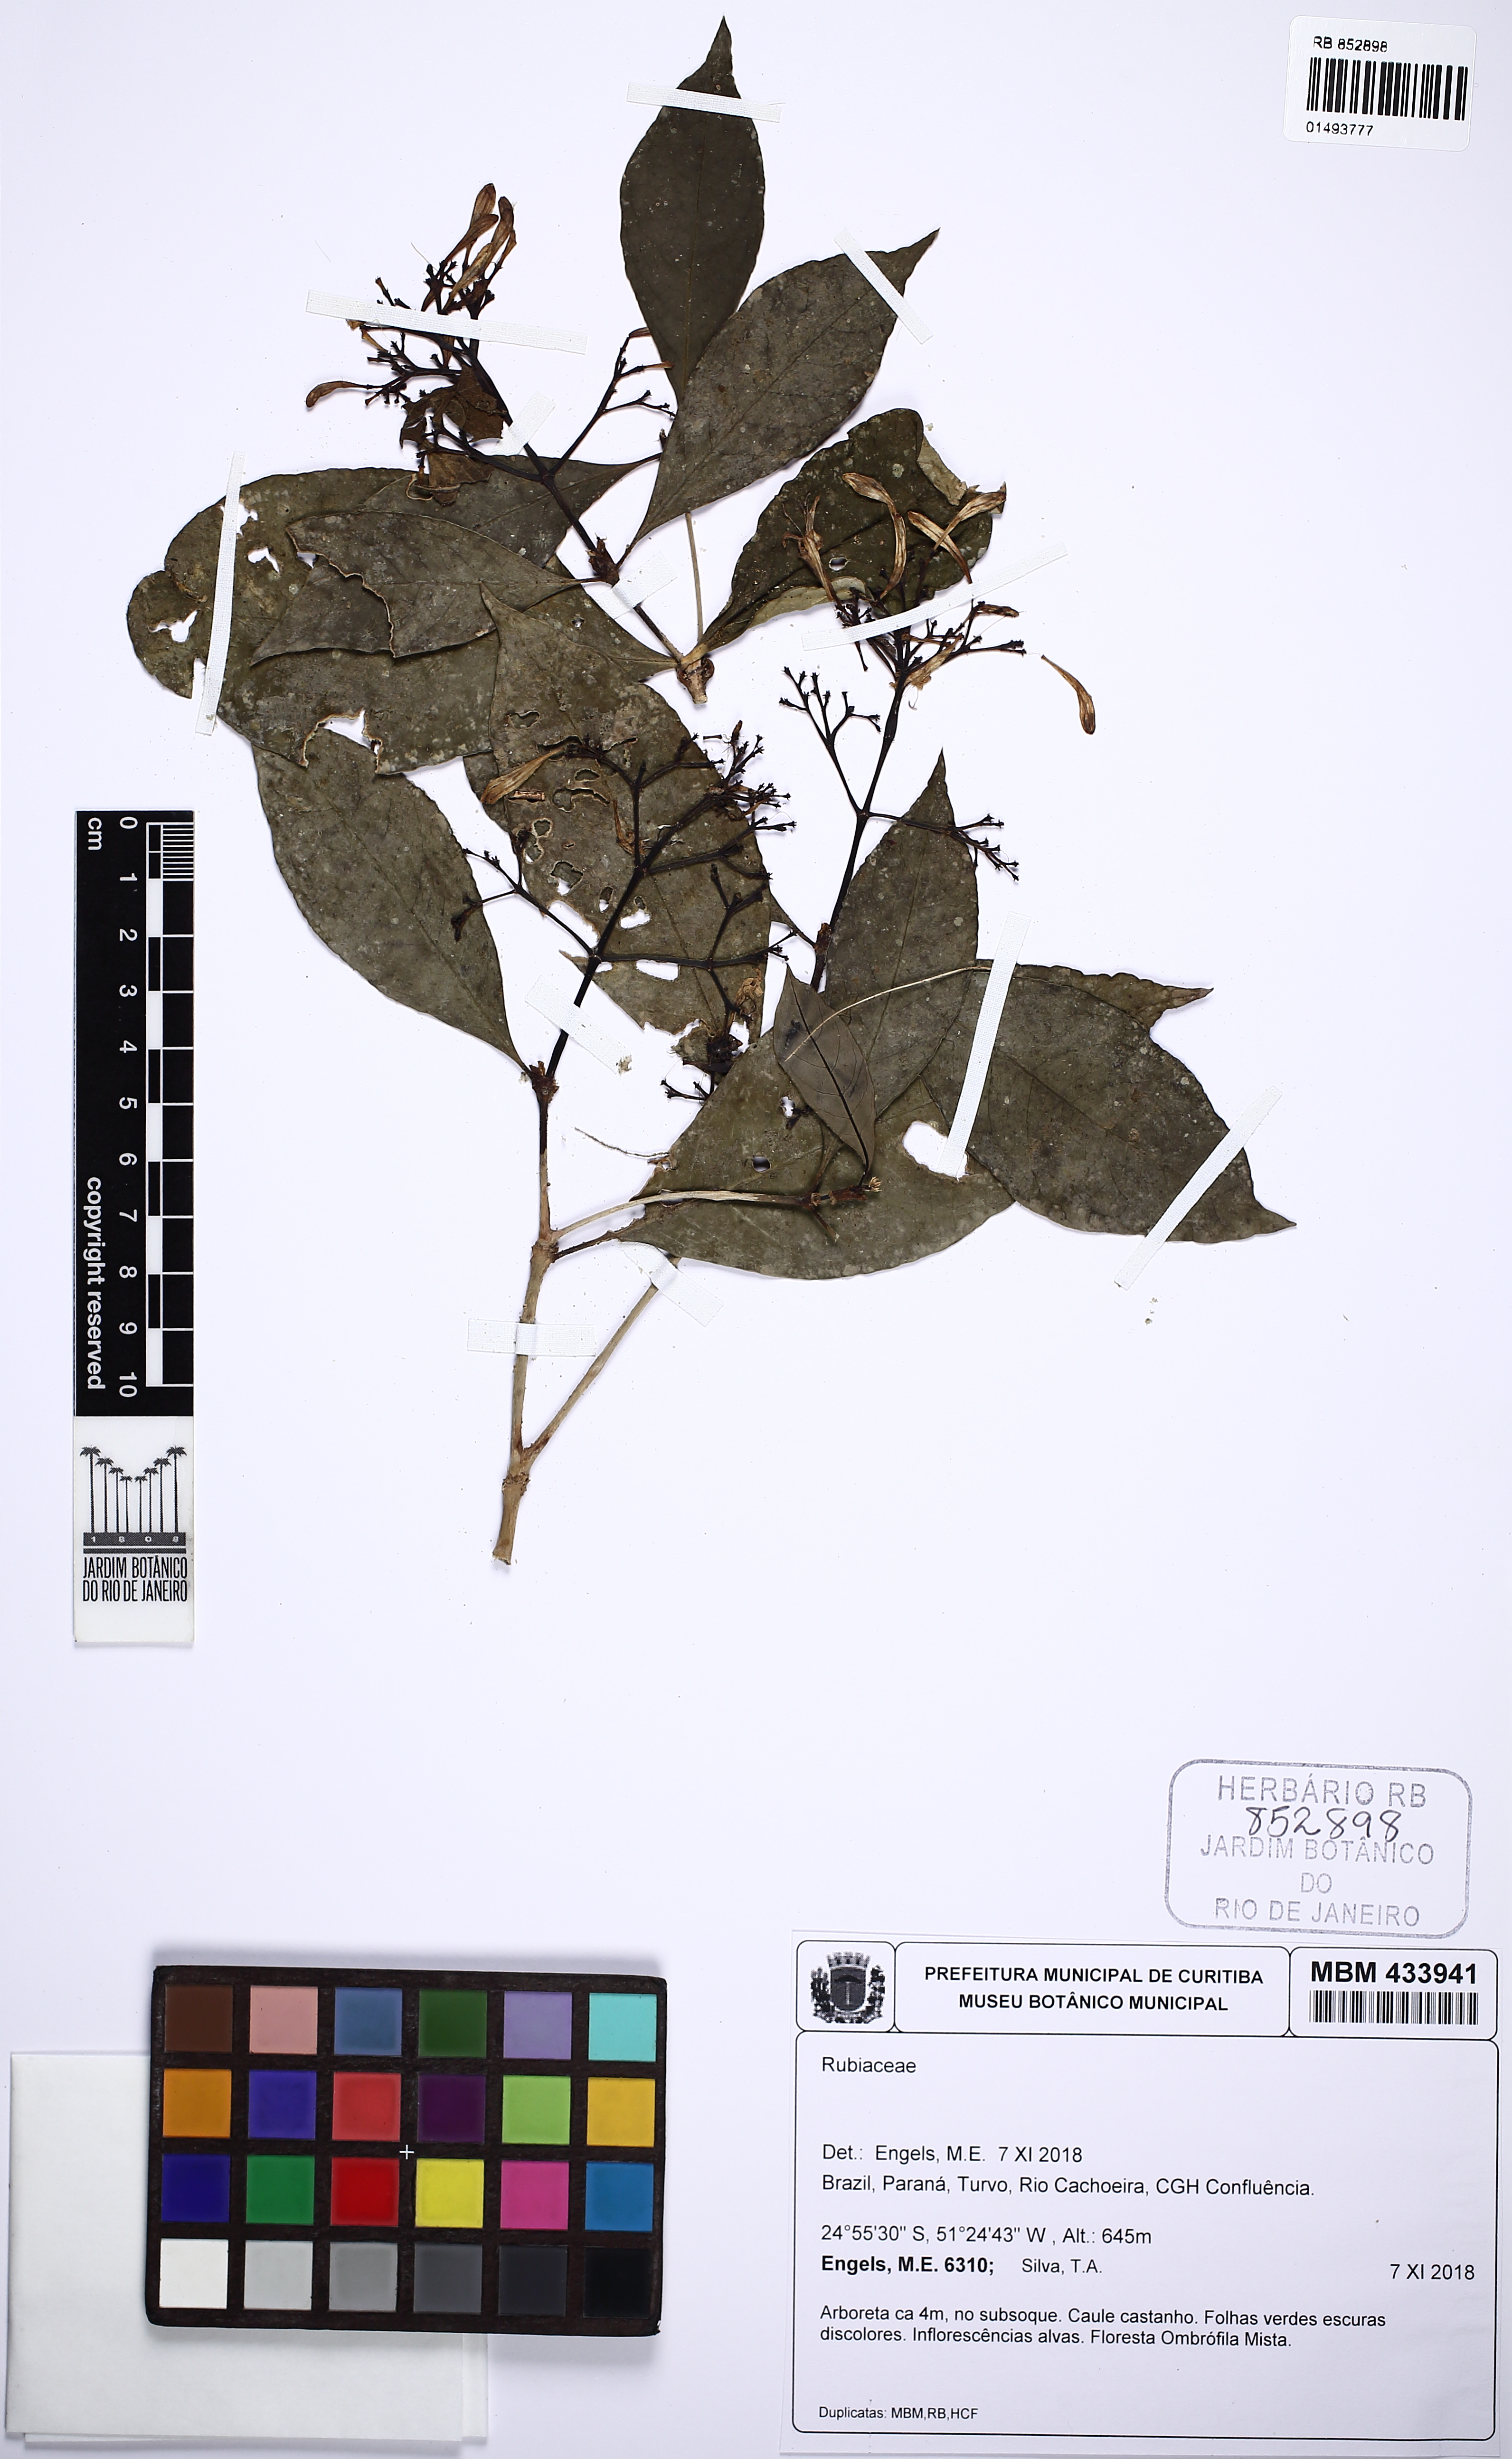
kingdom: Plantae
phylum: Tracheophyta
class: Magnoliopsida
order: Gentianales
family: Rubiaceae
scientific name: Rubiaceae
